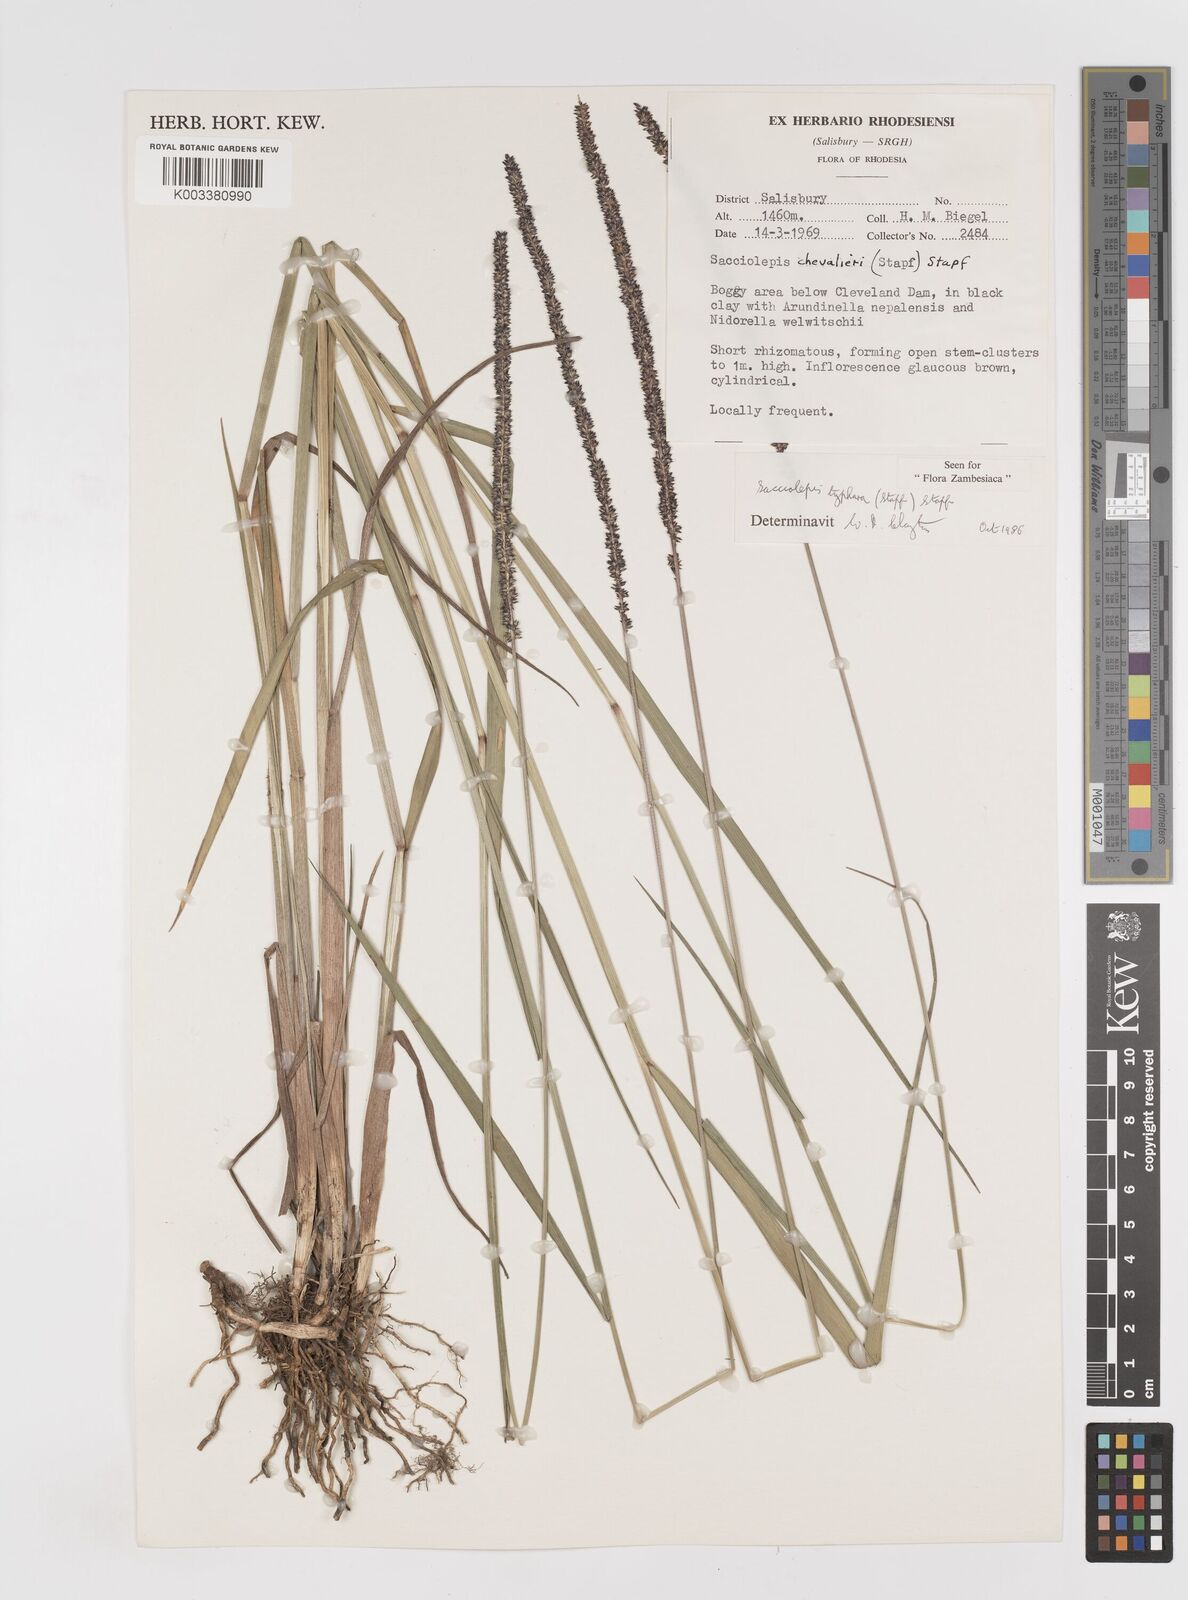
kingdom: Plantae
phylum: Tracheophyta
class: Liliopsida
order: Poales
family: Poaceae
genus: Sacciolepis
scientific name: Sacciolepis typhura
